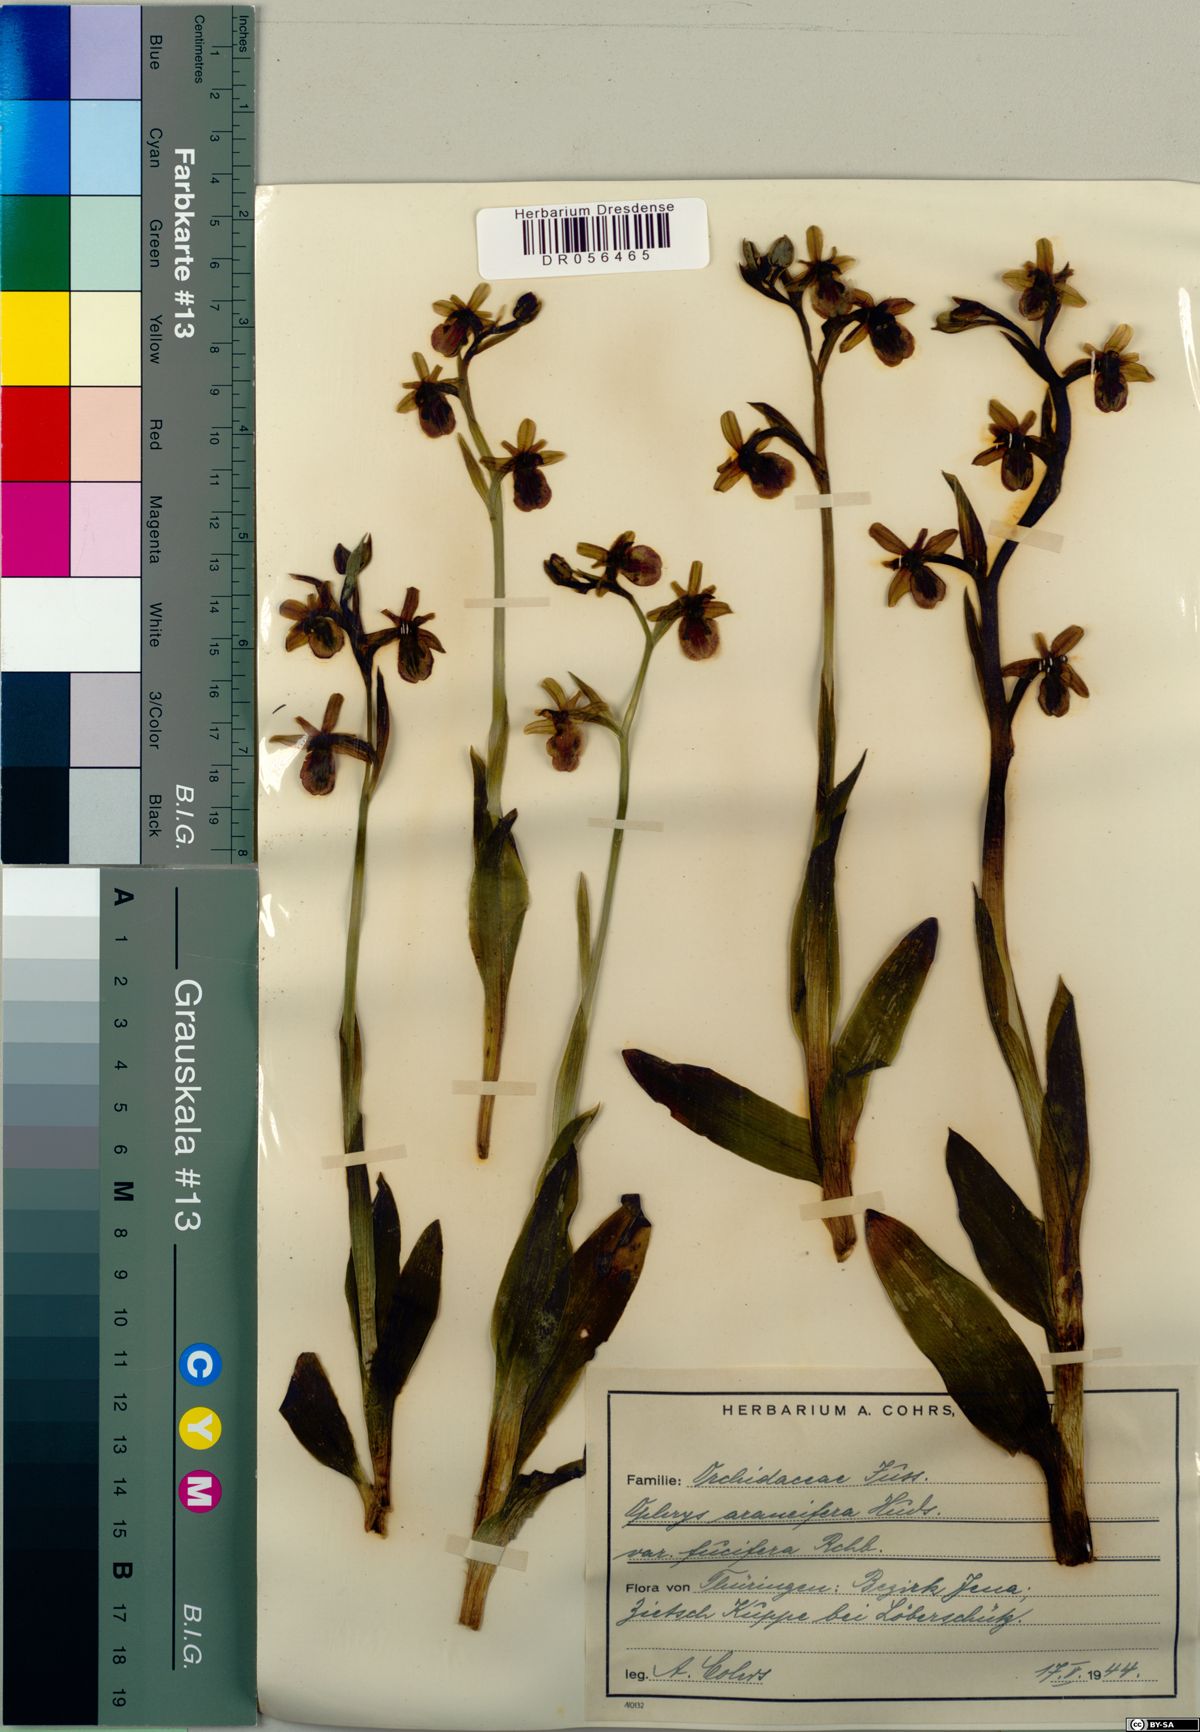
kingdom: Plantae
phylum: Tracheophyta
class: Liliopsida
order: Asparagales
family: Orchidaceae
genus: Ophrys
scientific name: Ophrys sphegodes
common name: Early spider-orchid
